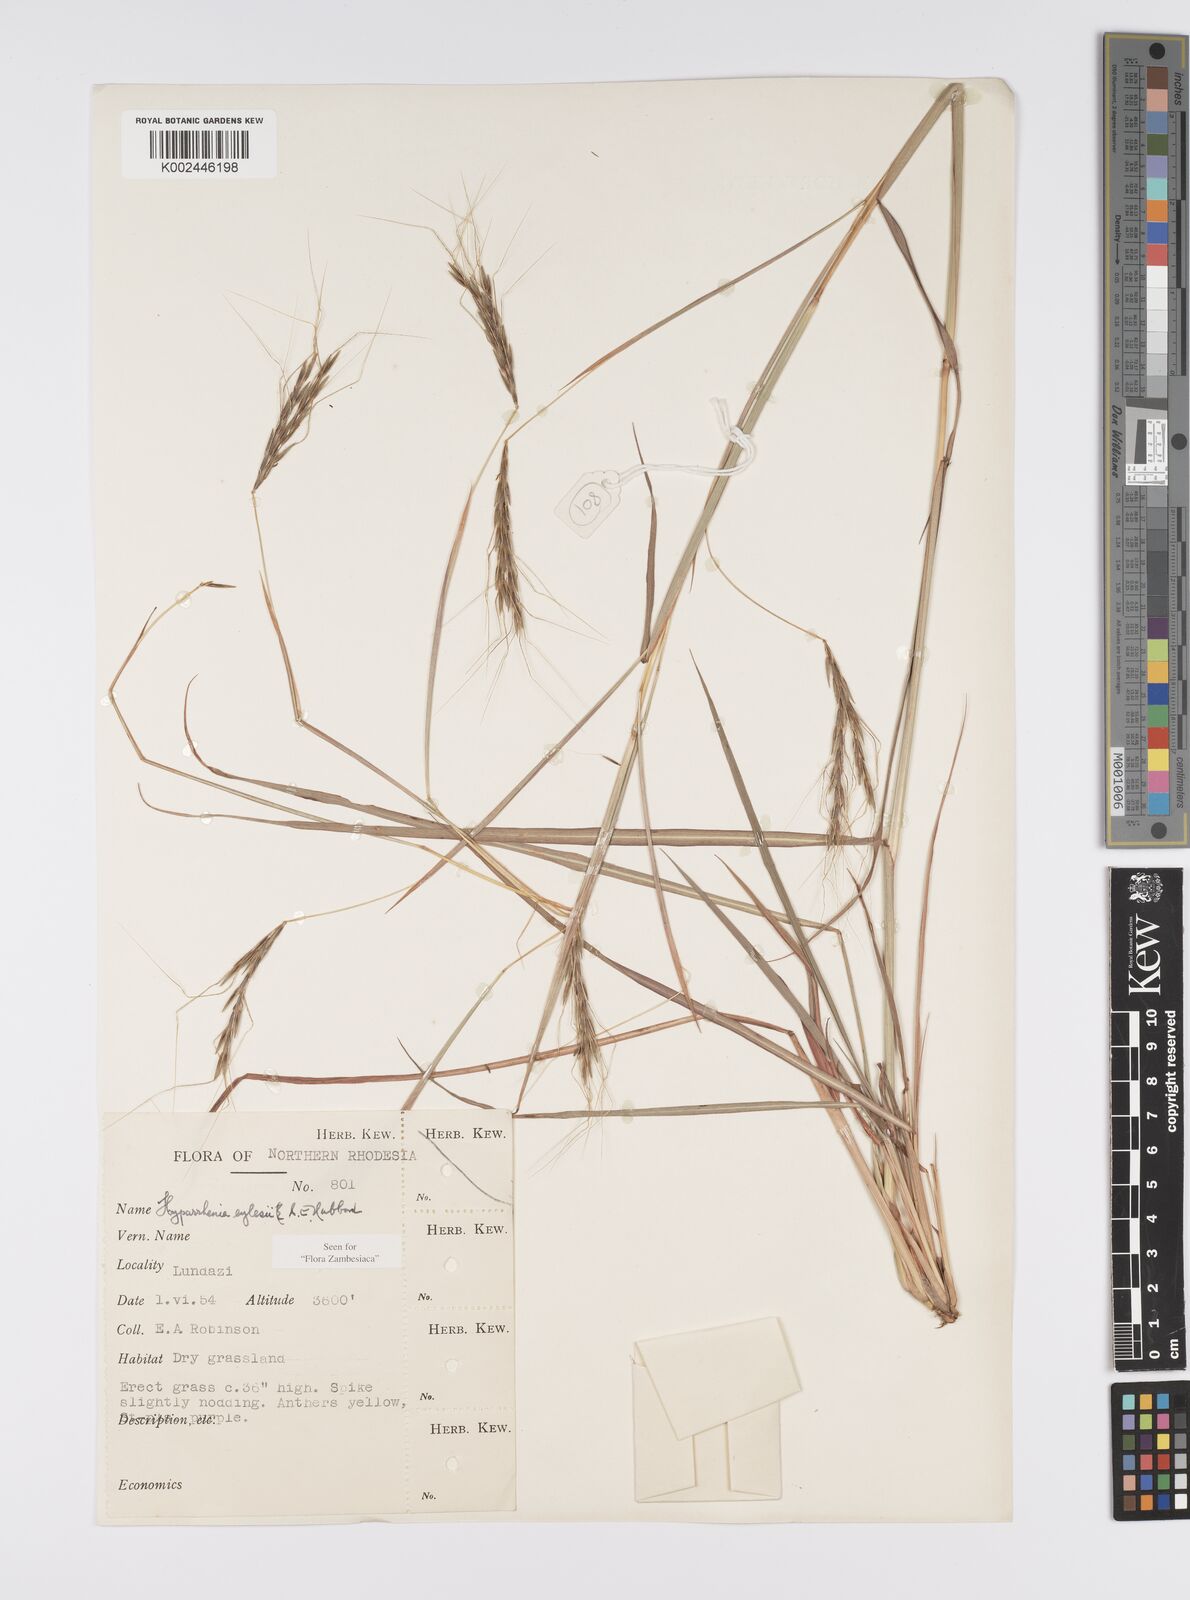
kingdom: Plantae
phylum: Tracheophyta
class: Liliopsida
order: Poales
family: Poaceae
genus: Elymandra
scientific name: Elymandra grallata
